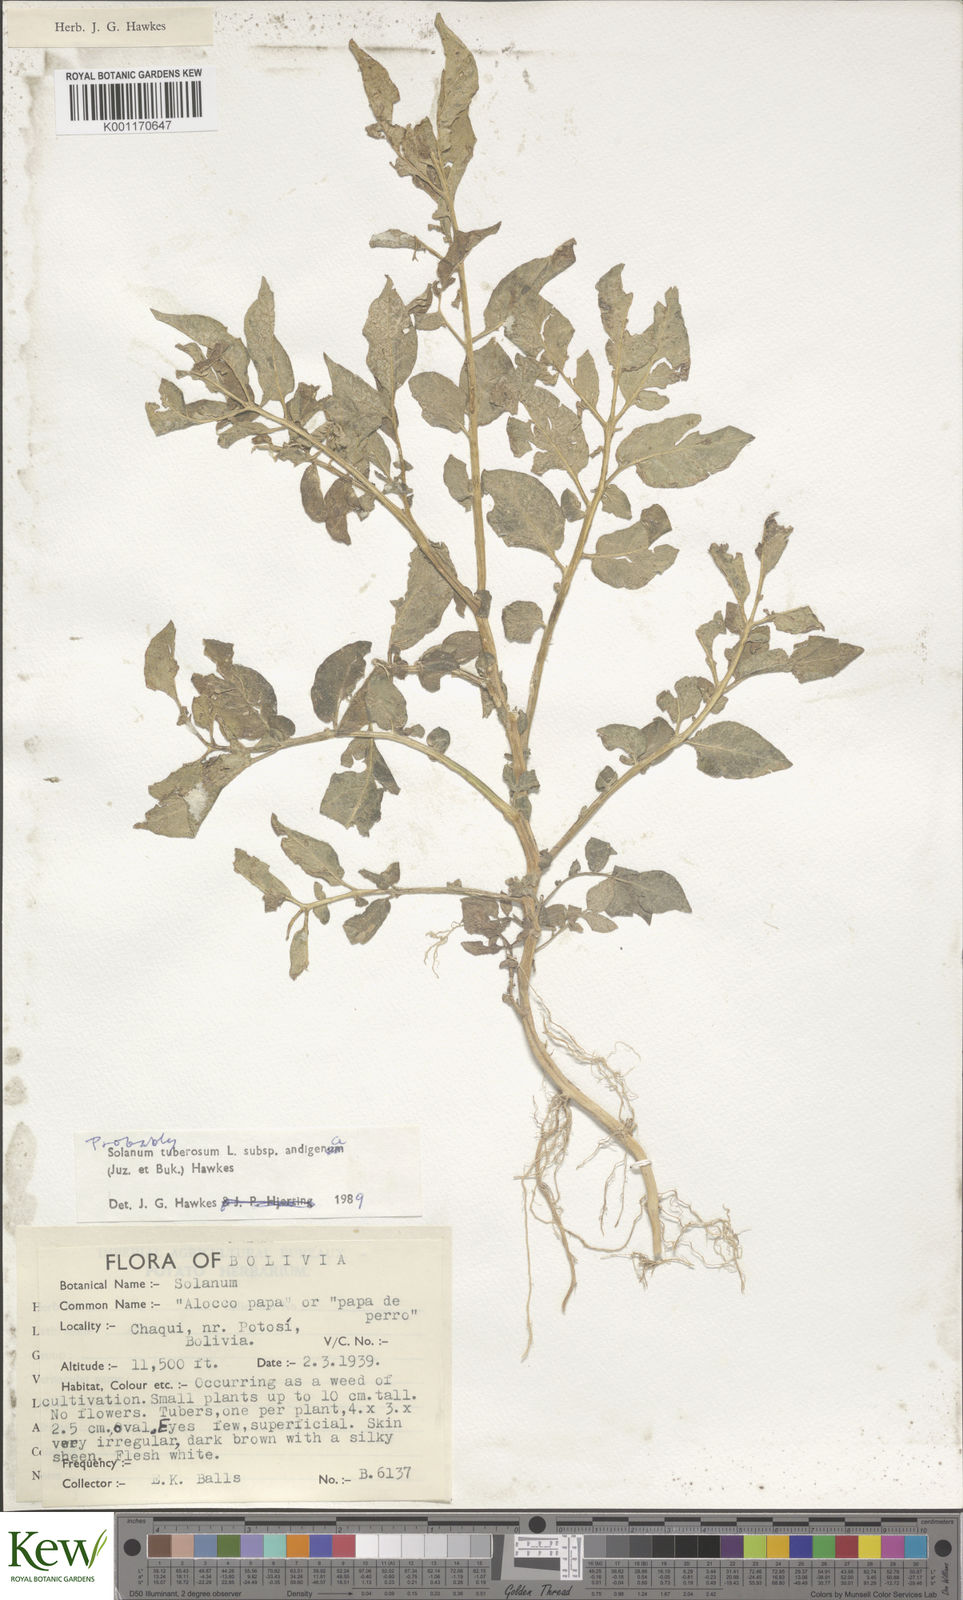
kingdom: Plantae
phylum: Tracheophyta
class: Magnoliopsida
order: Solanales
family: Solanaceae
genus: Solanum
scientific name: Solanum tuberosum
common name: Potato
